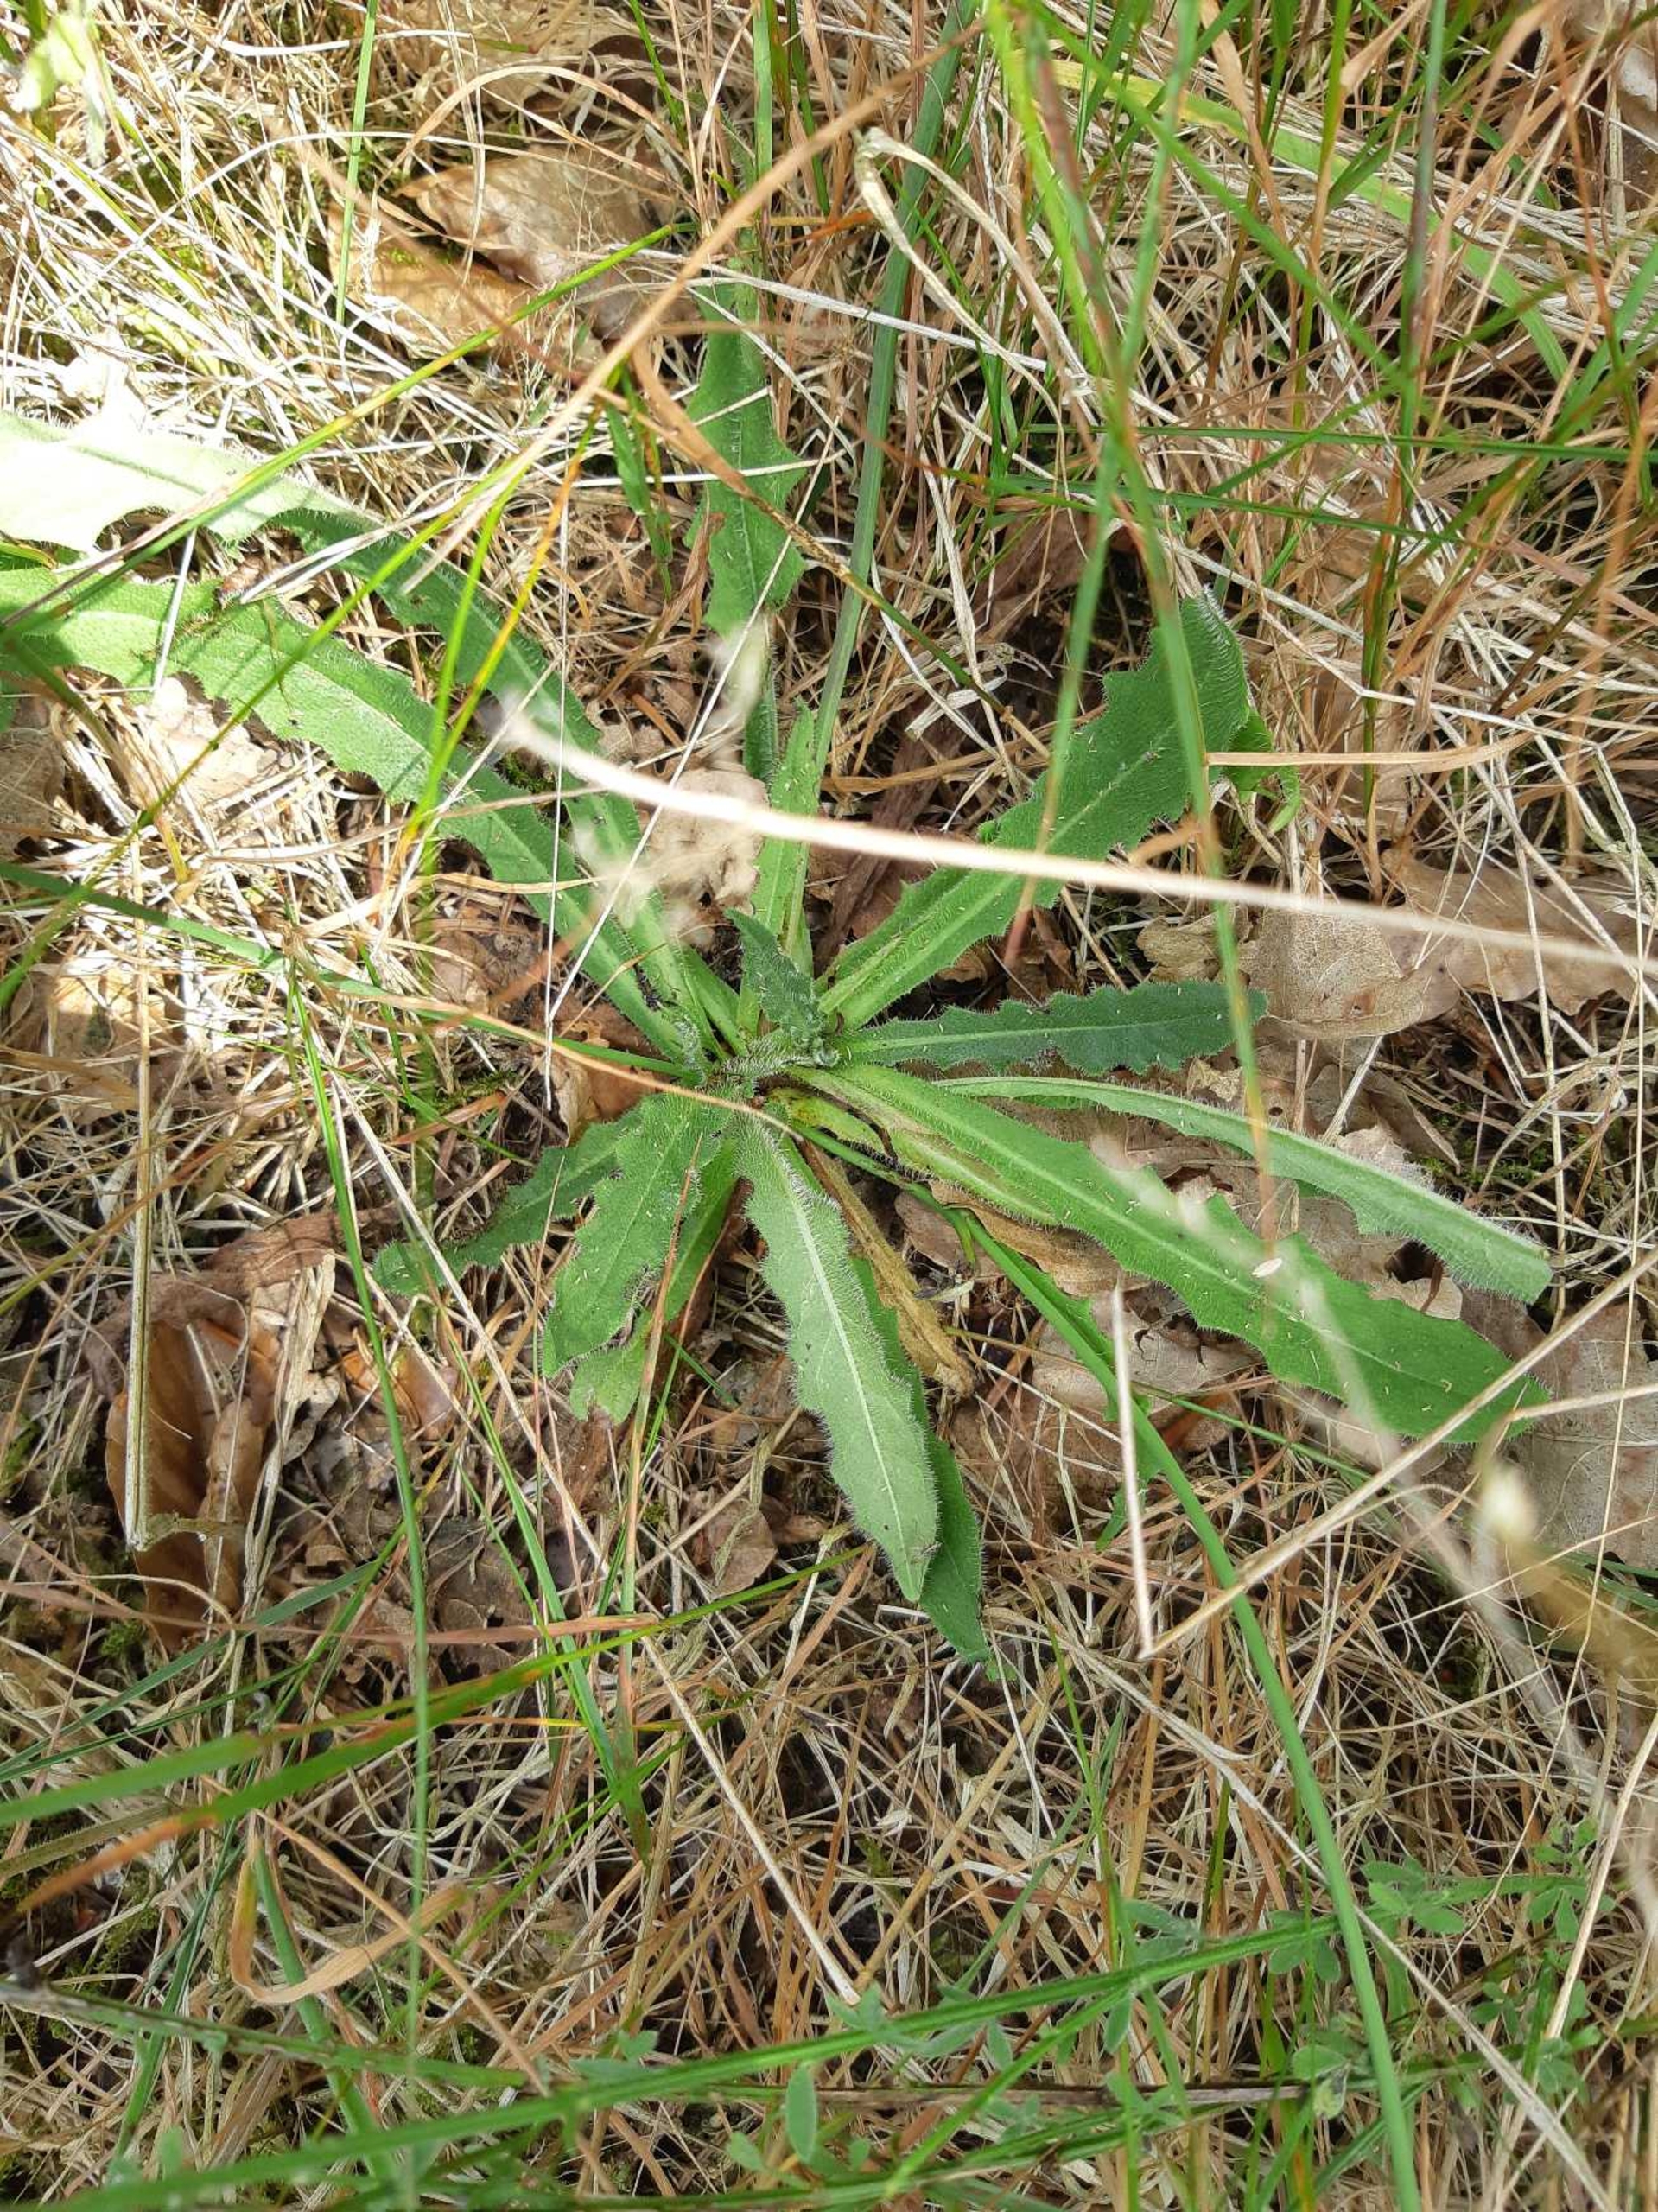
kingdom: Plantae
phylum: Tracheophyta
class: Magnoliopsida
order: Asterales
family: Asteraceae
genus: Hypochaeris
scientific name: Hypochaeris radicata
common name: Almindelig kongepen
